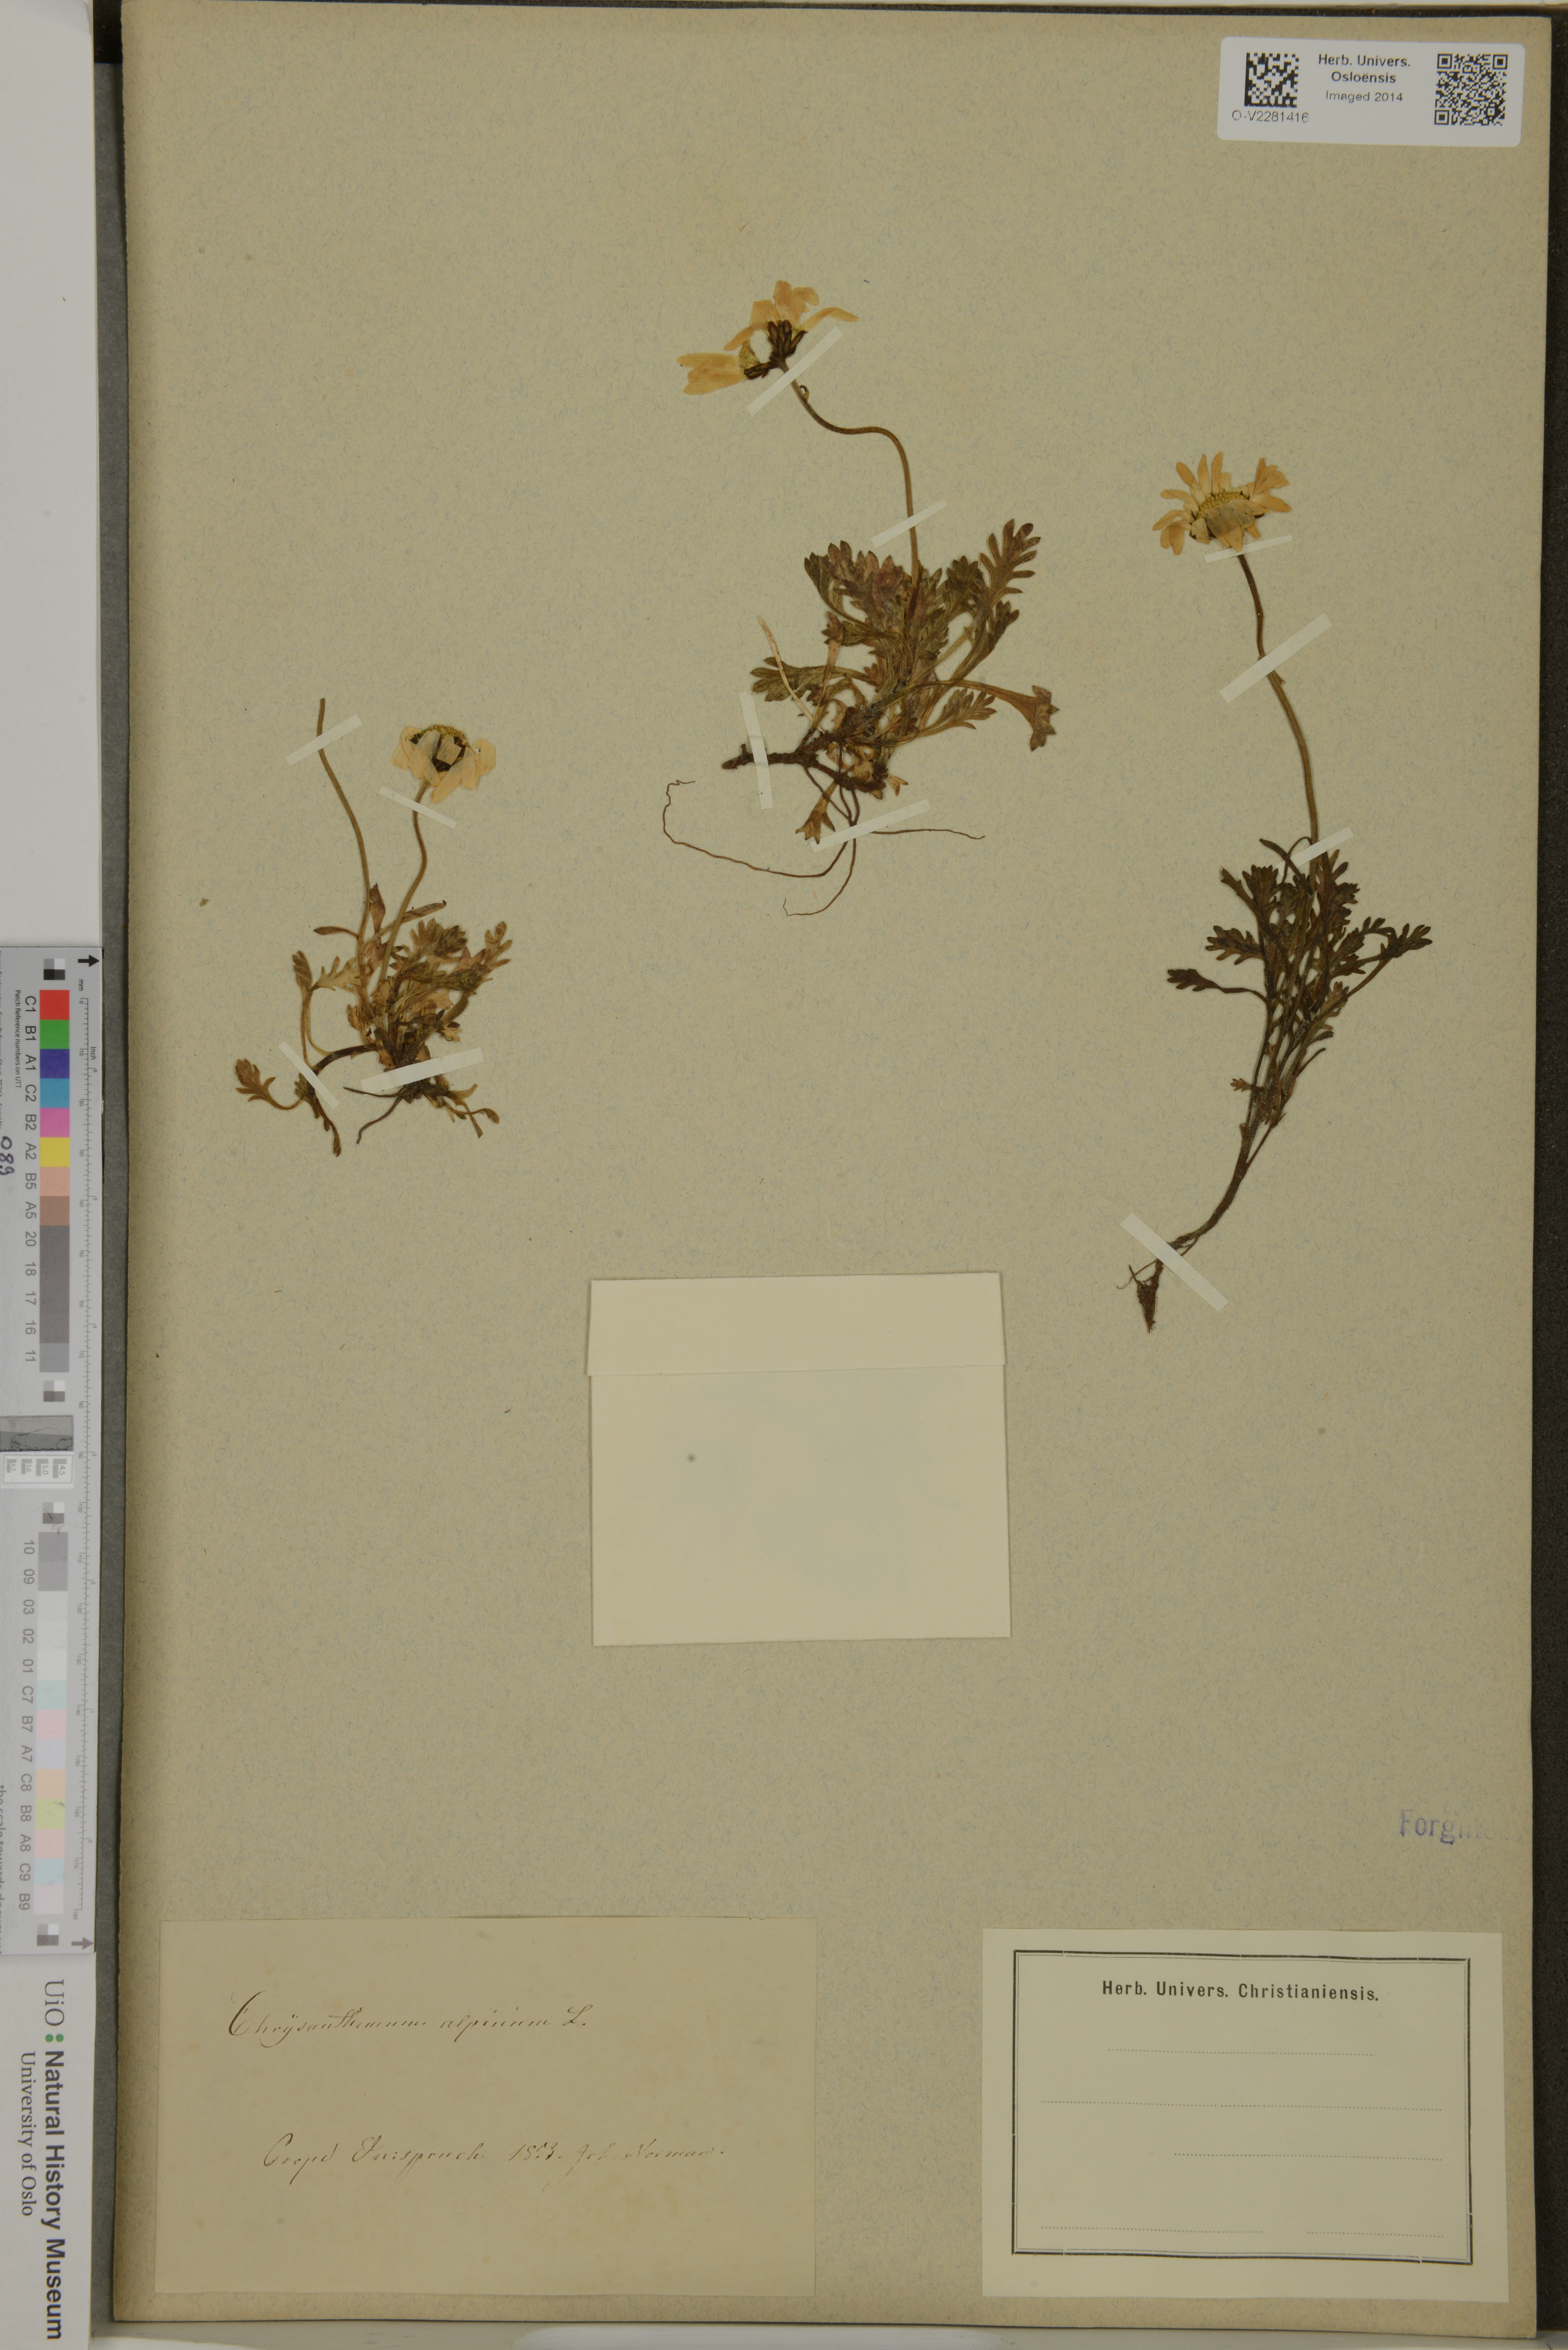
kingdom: Plantae
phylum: Tracheophyta
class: Magnoliopsida
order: Asterales
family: Asteraceae
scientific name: Asteraceae
